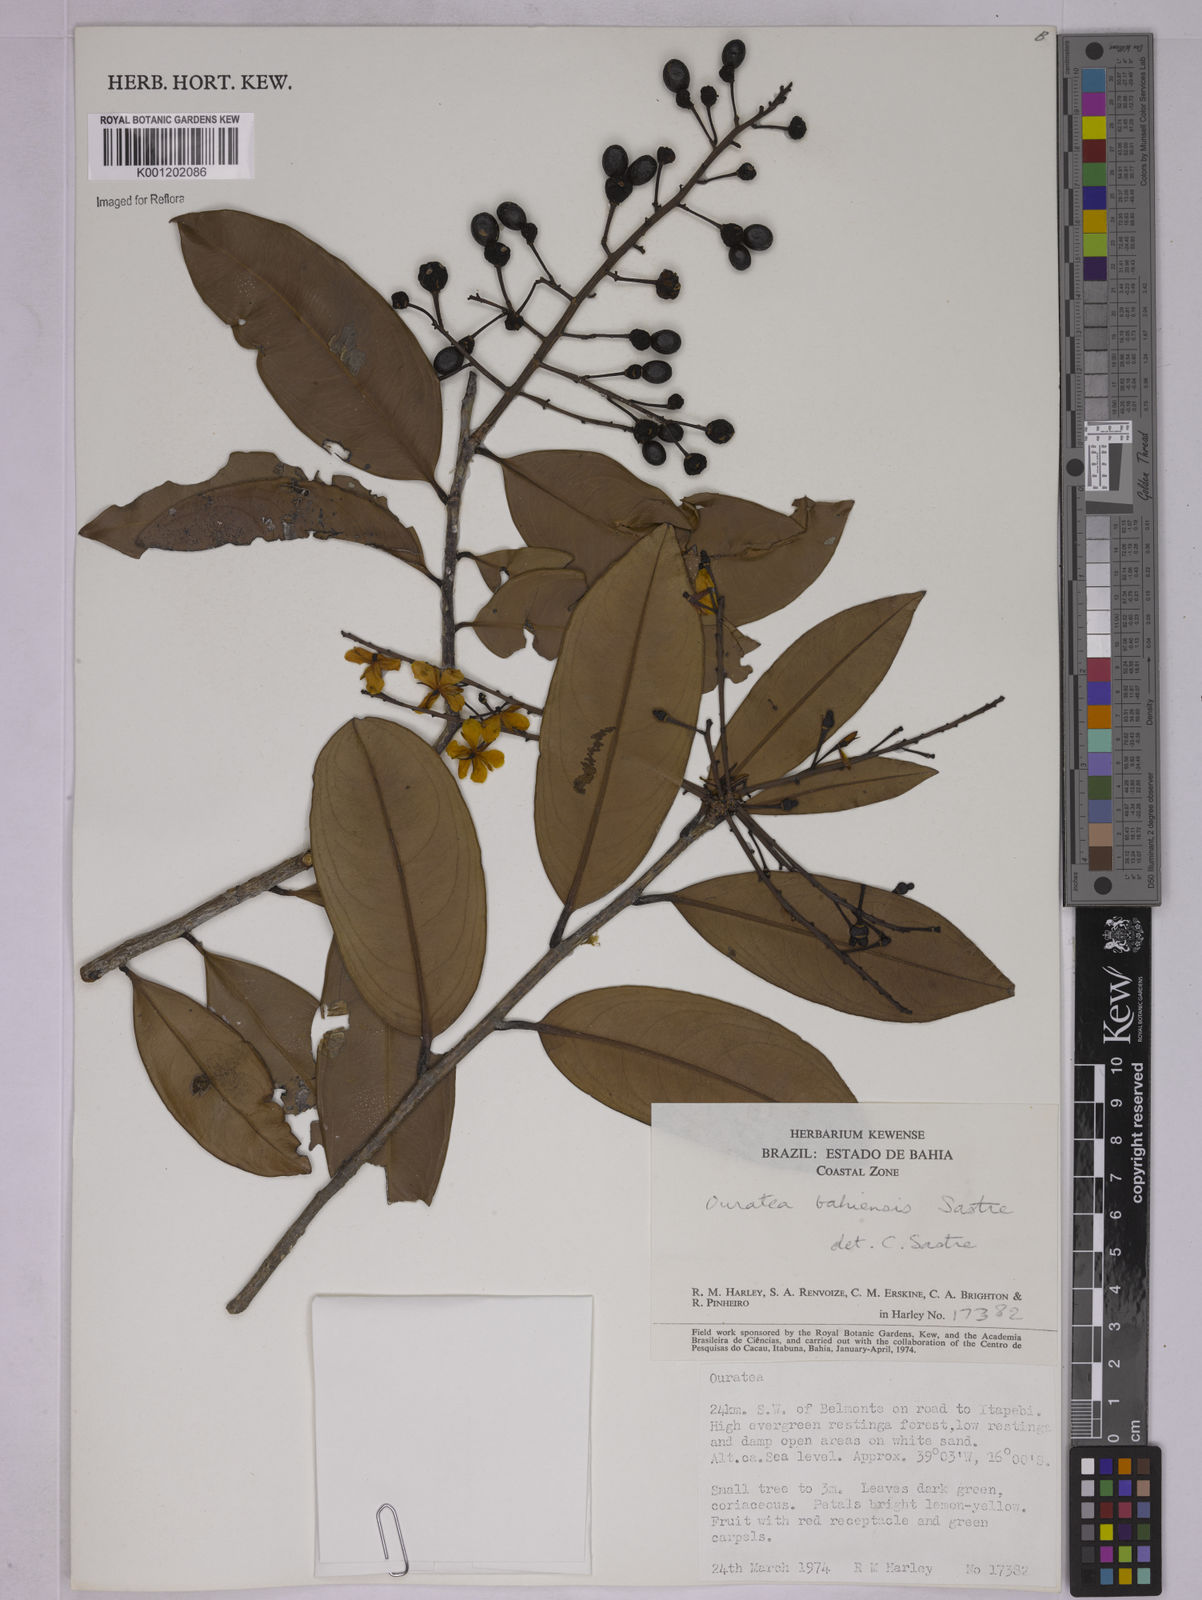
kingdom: Plantae
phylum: Tracheophyta
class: Magnoliopsida
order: Malpighiales
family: Ochnaceae
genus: Ouratea
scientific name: Ouratea bahiensis
